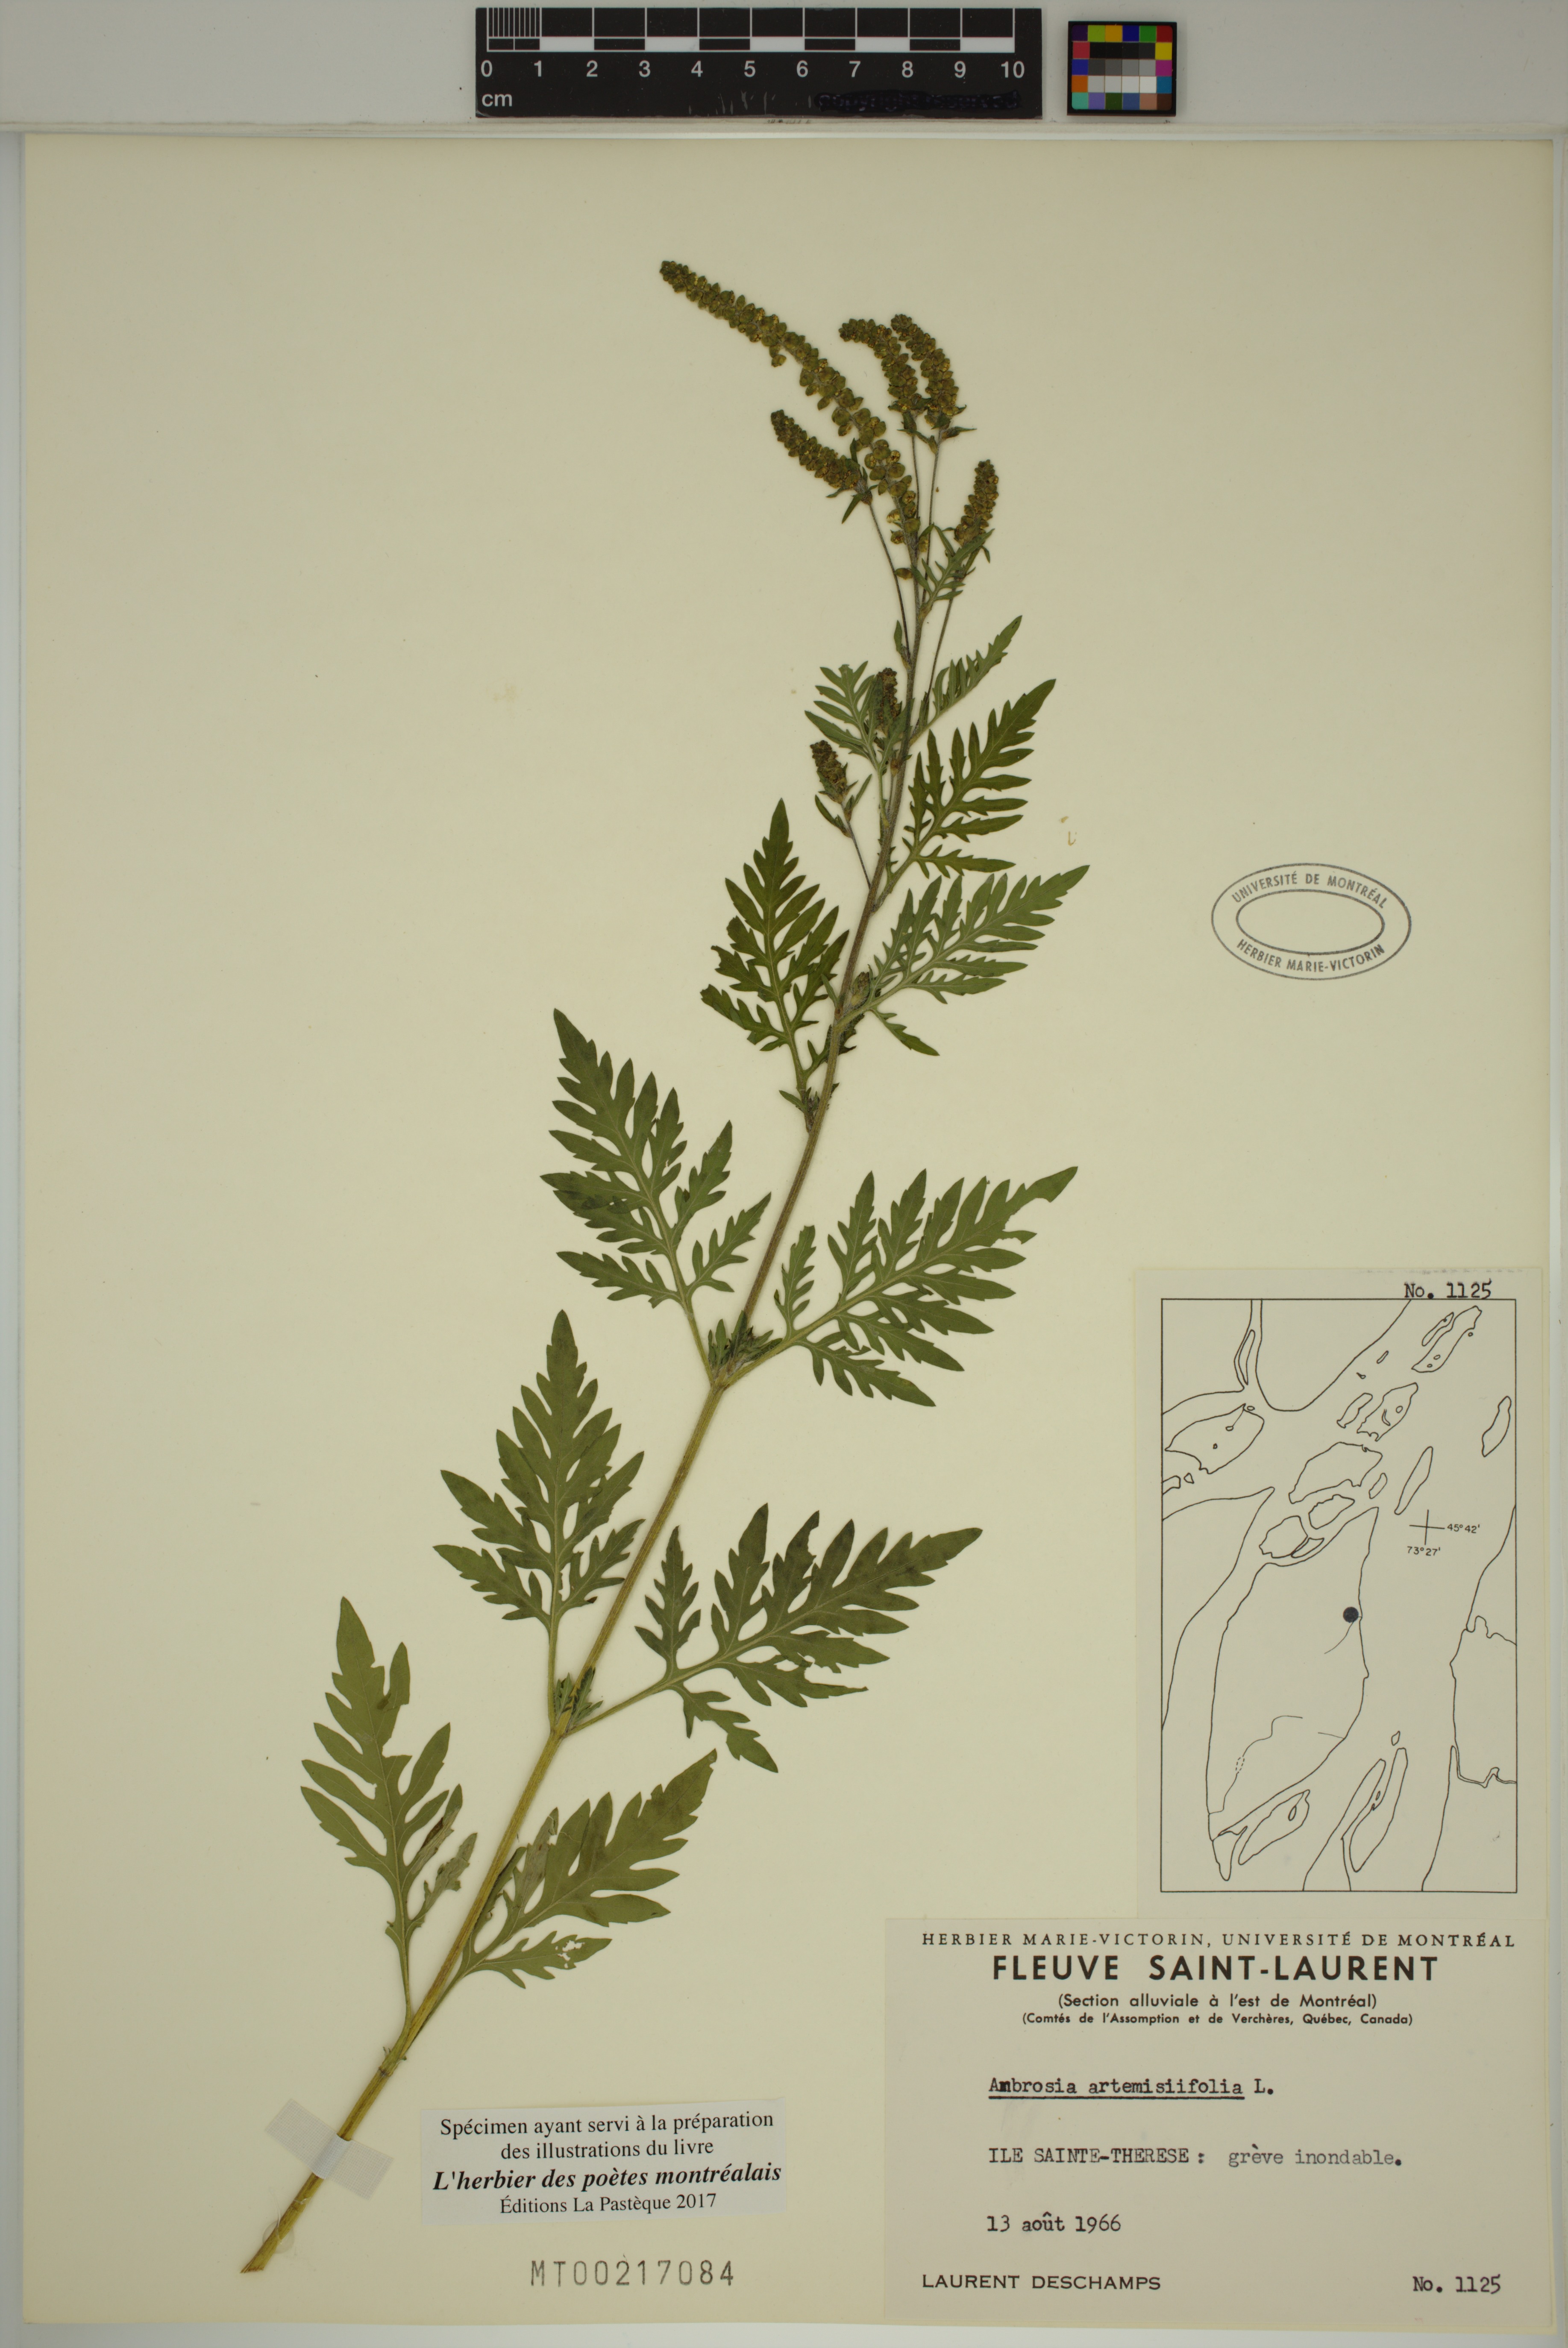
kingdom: Plantae
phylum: Tracheophyta
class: Magnoliopsida
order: Asterales
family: Asteraceae
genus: Ambrosia
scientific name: Ambrosia artemisiifolia
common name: Annual ragweed
